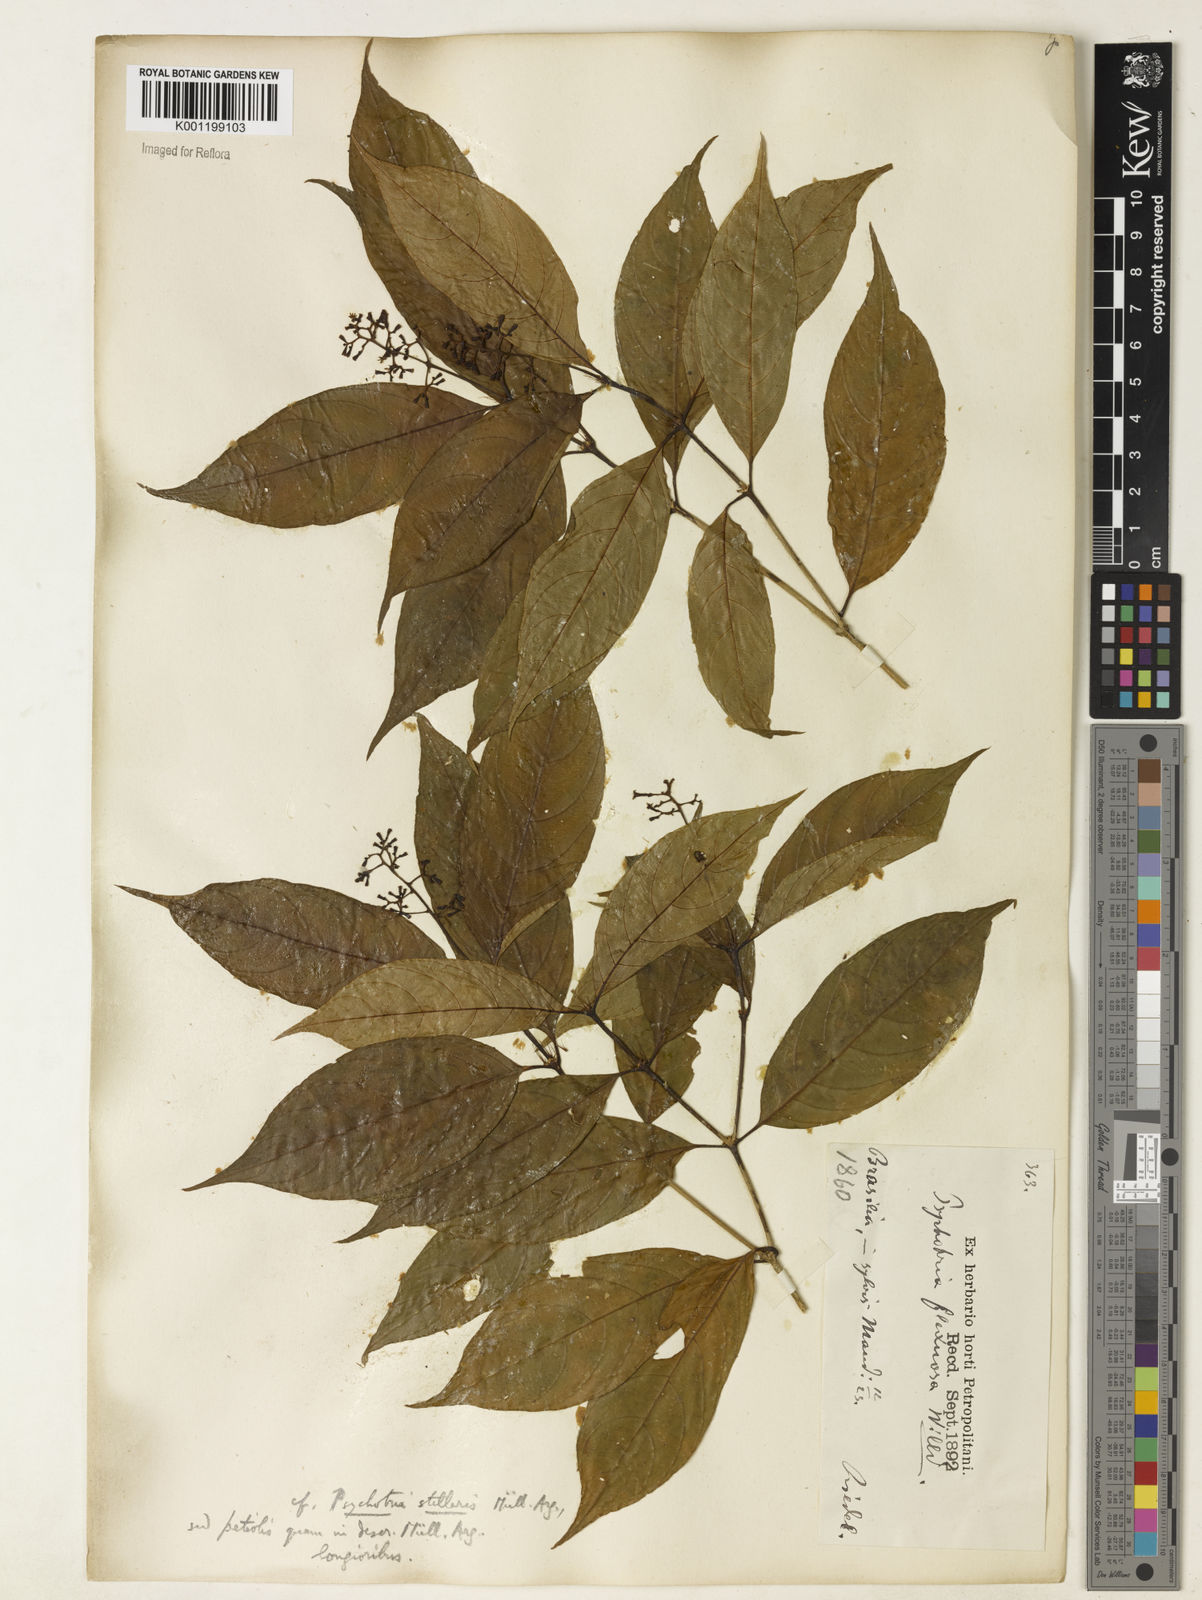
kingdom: Plantae
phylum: Tracheophyta
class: Magnoliopsida
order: Gentianales
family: Rubiaceae
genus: Psychotria
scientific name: Psychotria
